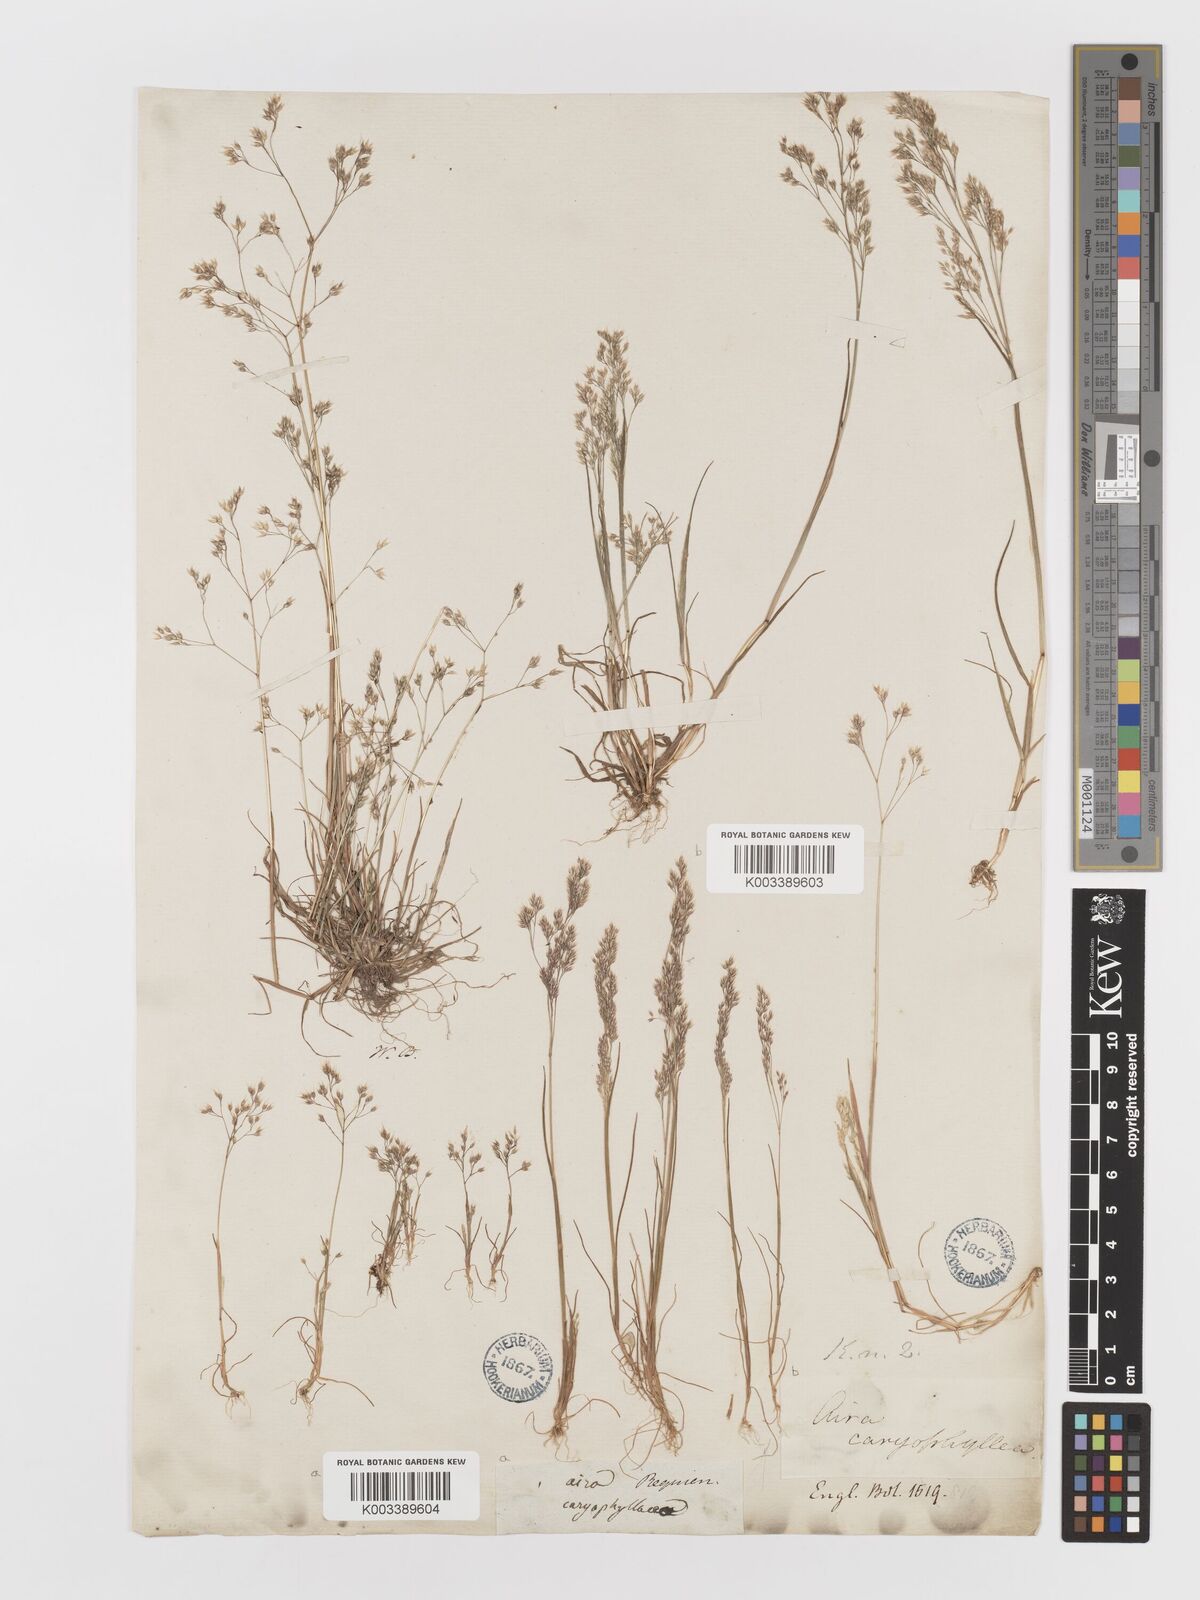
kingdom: Plantae
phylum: Tracheophyta
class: Liliopsida
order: Poales
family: Poaceae
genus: Aira
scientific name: Aira caryophyllea
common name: Silver hairgrass
